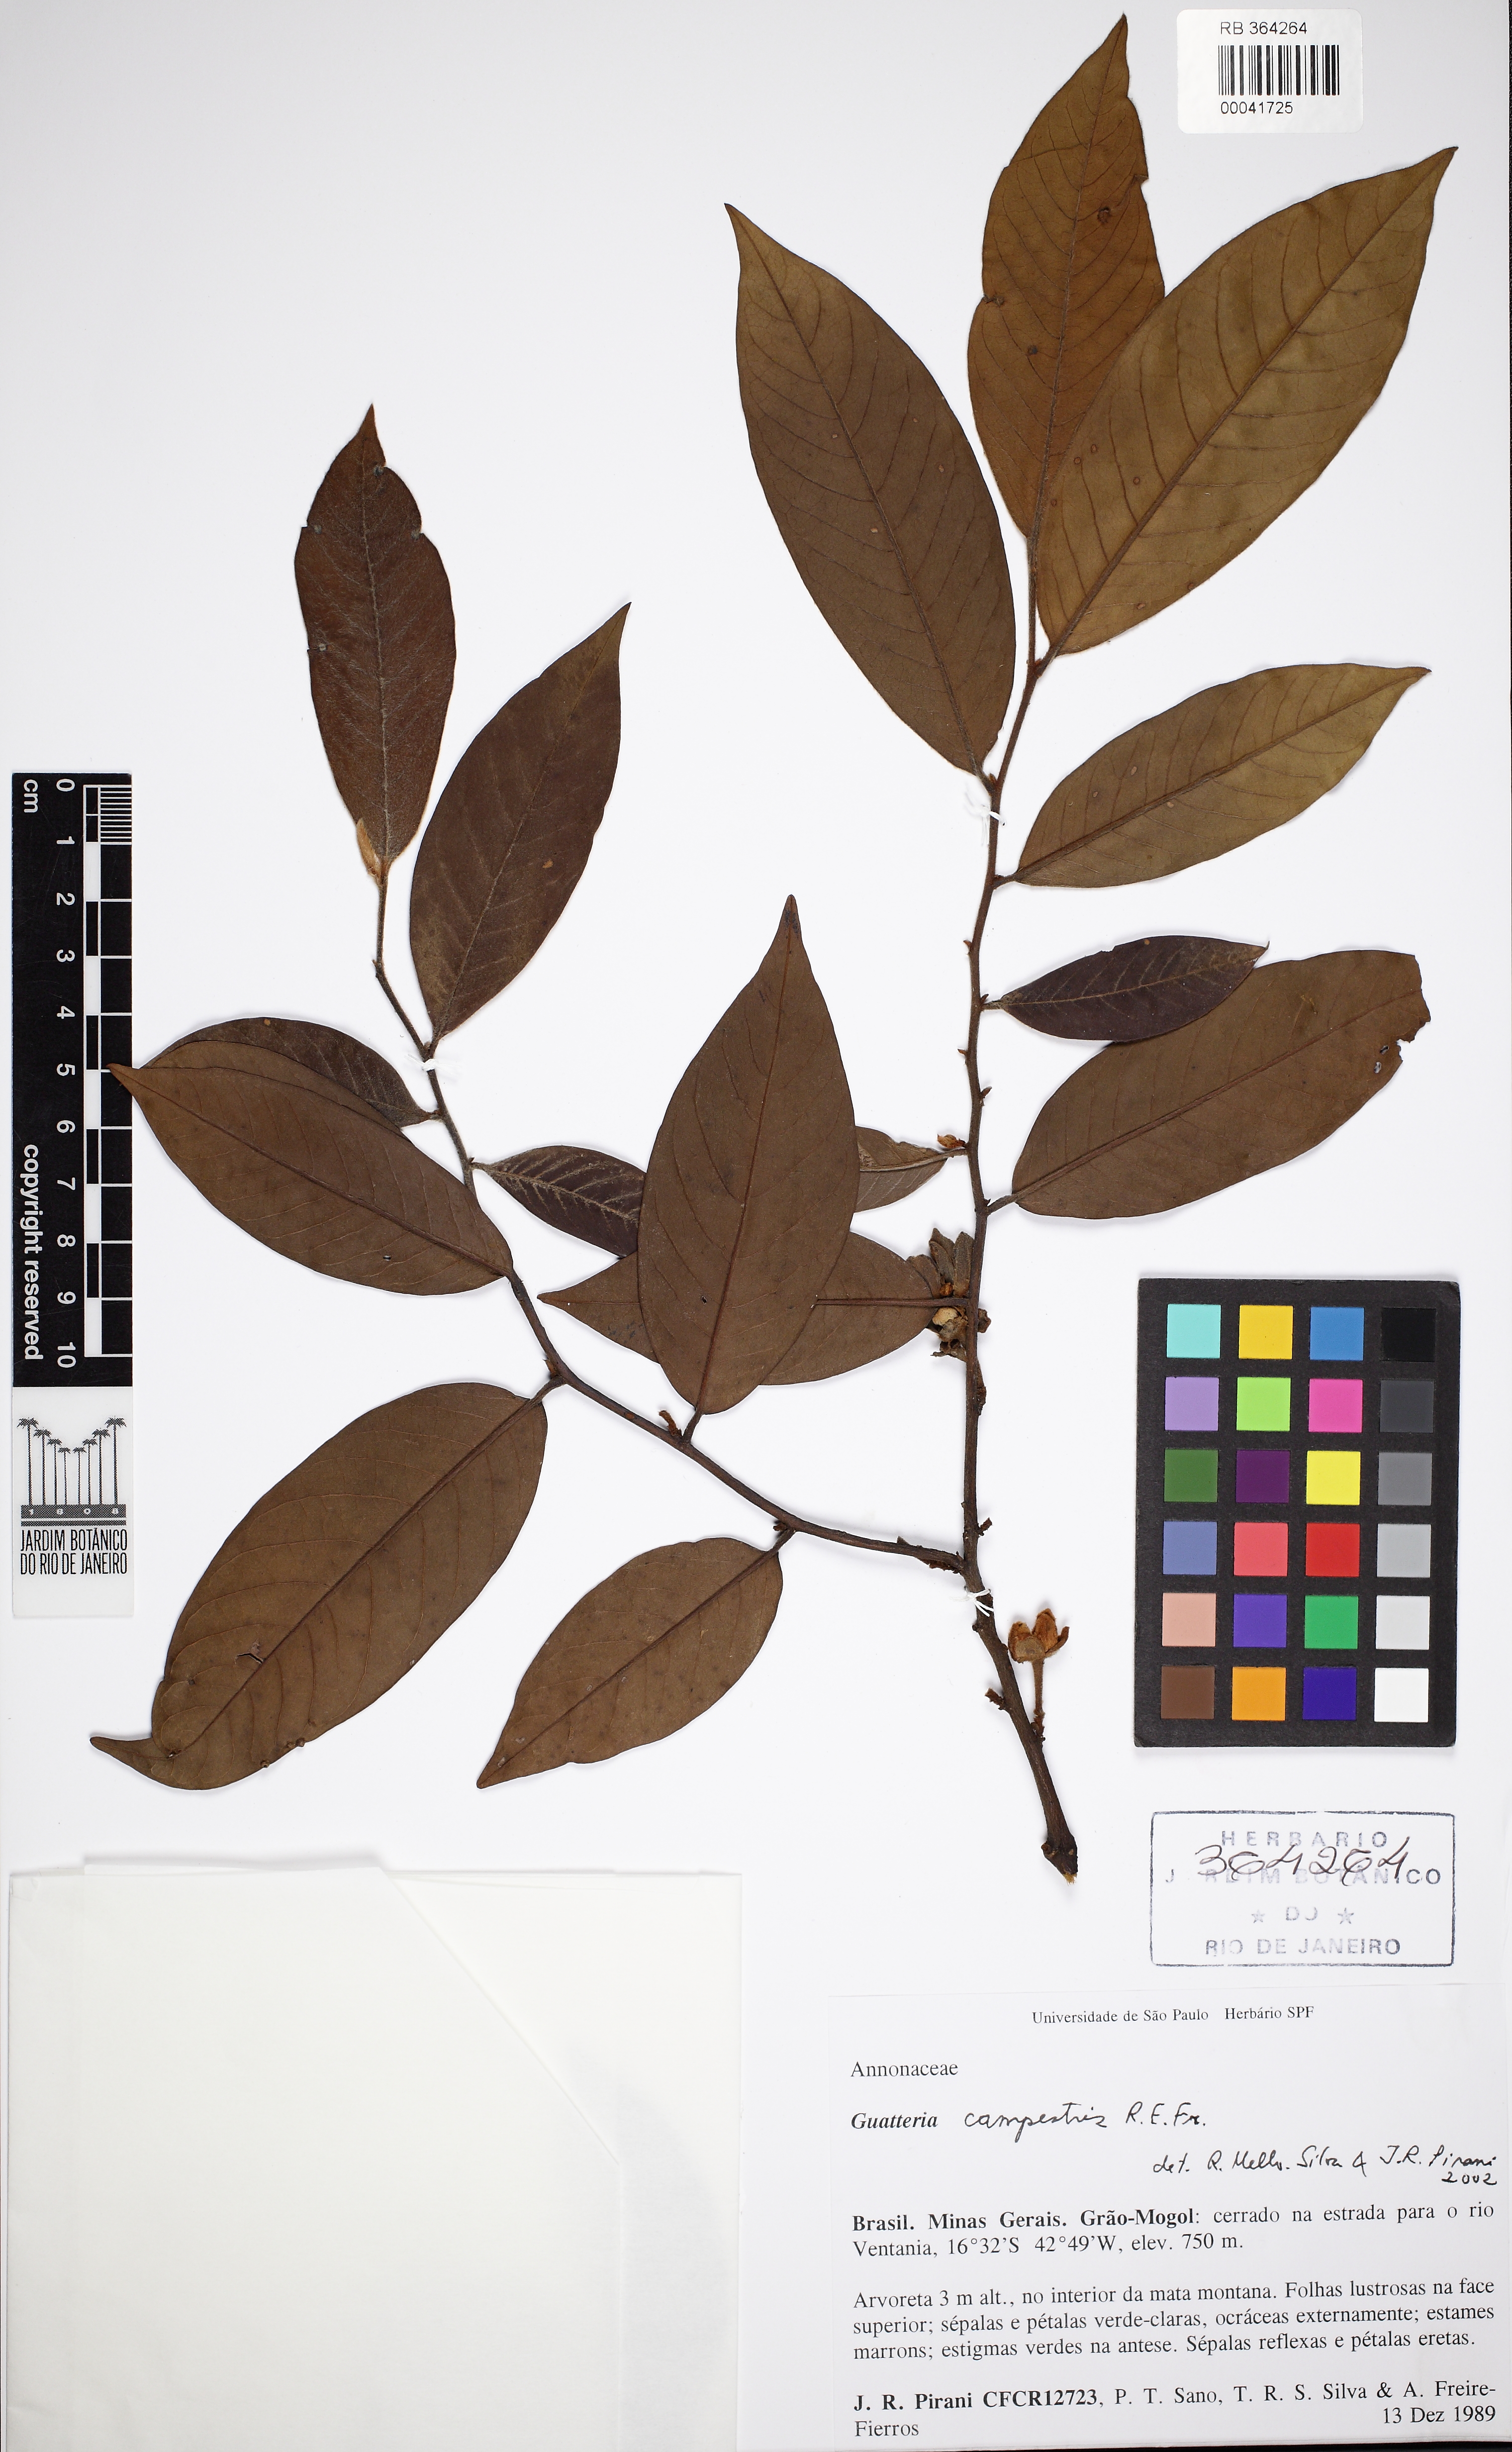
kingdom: Plantae
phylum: Tracheophyta
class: Magnoliopsida
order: Magnoliales
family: Annonaceae
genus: Guatteria
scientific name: Guatteria campestris
